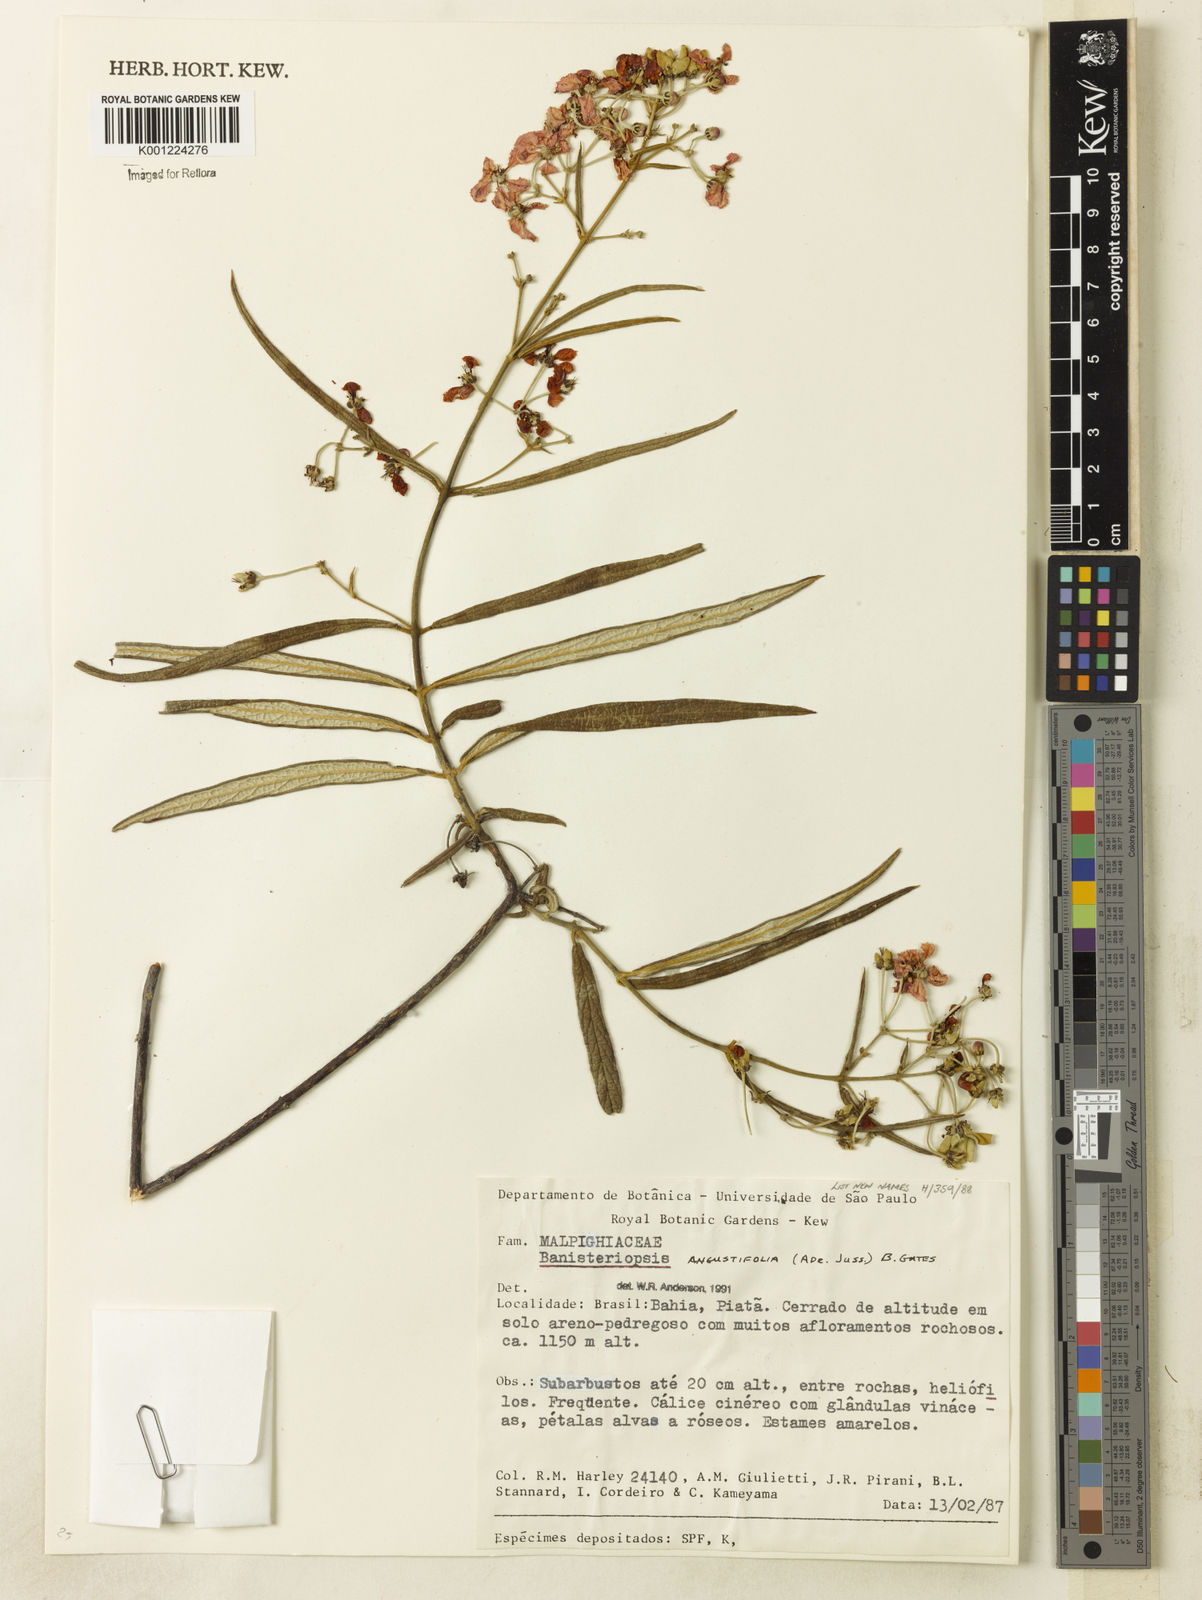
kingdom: Plantae
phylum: Tracheophyta
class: Magnoliopsida
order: Malpighiales
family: Malpighiaceae
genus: Banisteriopsis
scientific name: Banisteriopsis angustifolia
